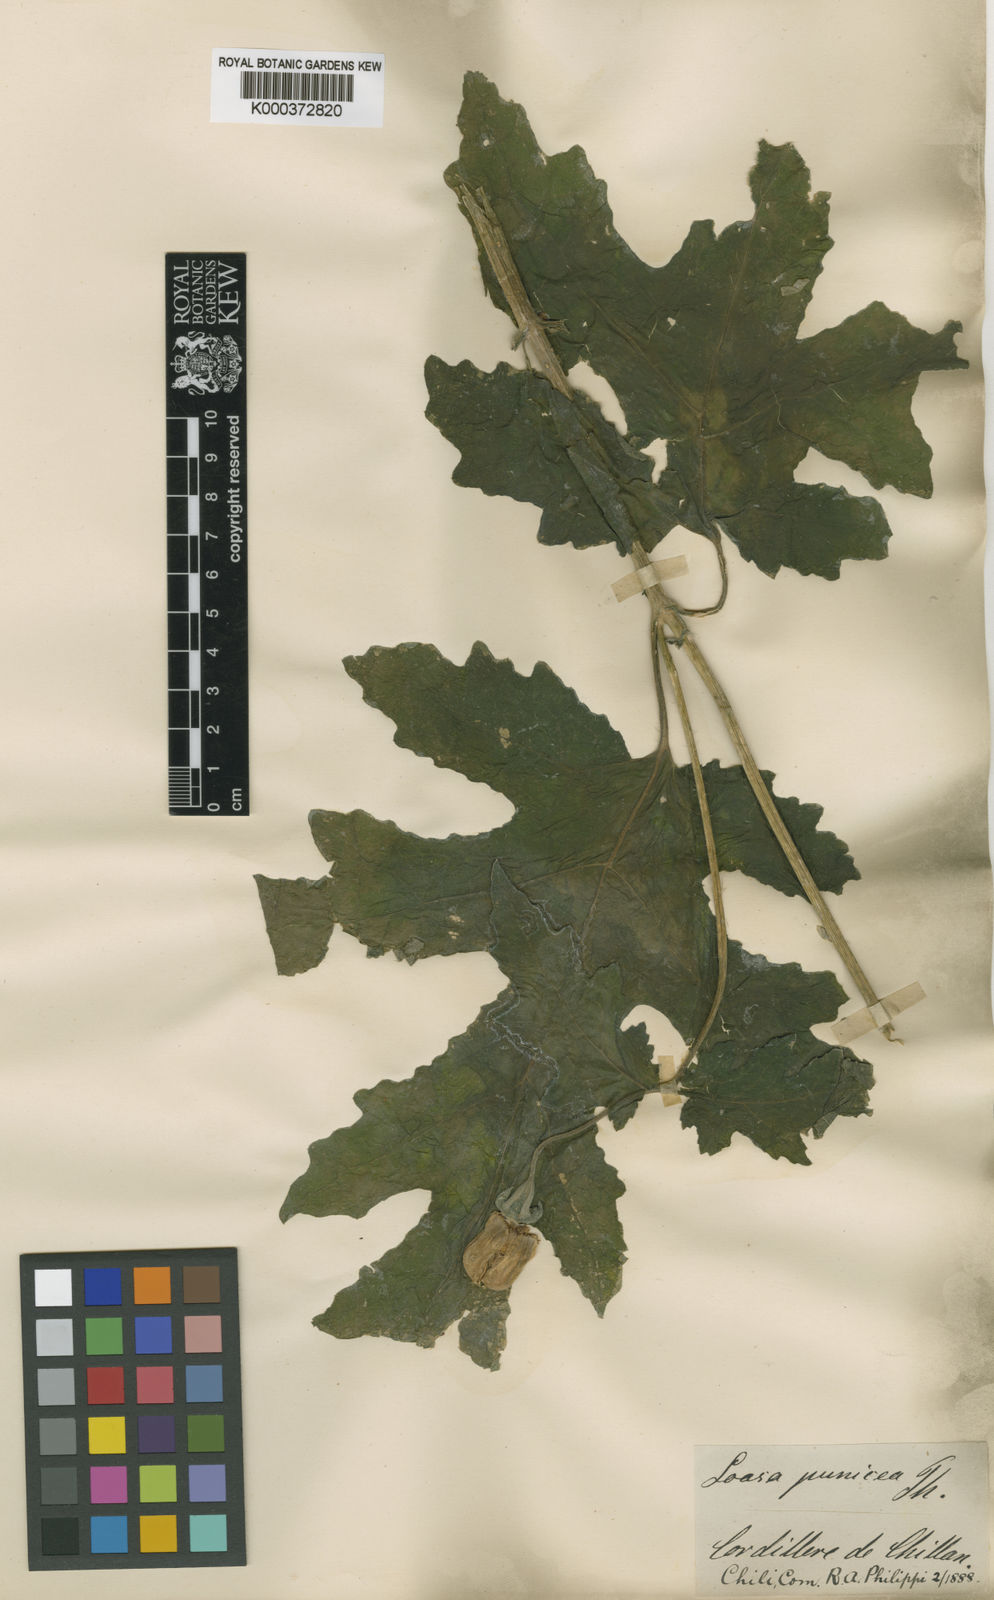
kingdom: Plantae
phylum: Tracheophyta
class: Magnoliopsida
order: Cornales
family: Loasaceae
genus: Loasa
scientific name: Loasa tricolor
